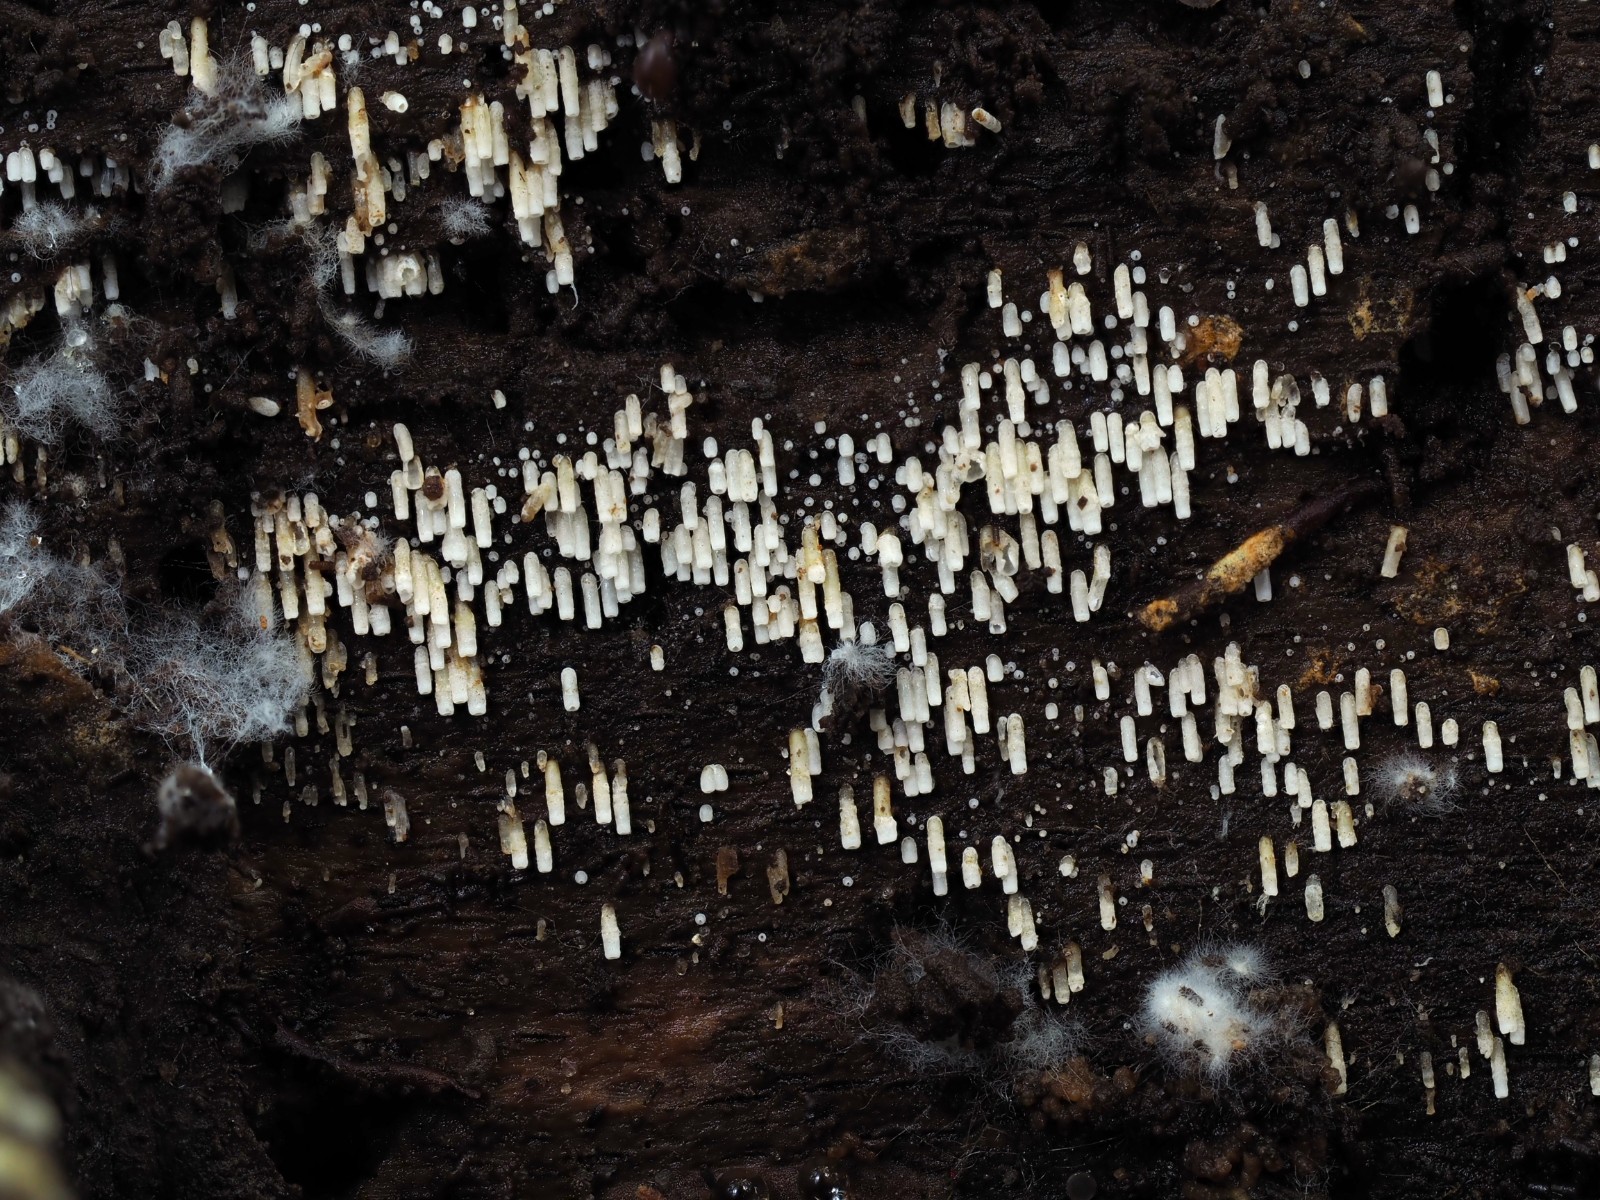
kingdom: Fungi
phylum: Basidiomycota
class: Agaricomycetes
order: Agaricales
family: Marasmiaceae
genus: Henningsomyces
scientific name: Henningsomyces candidus
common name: glat hængerør
